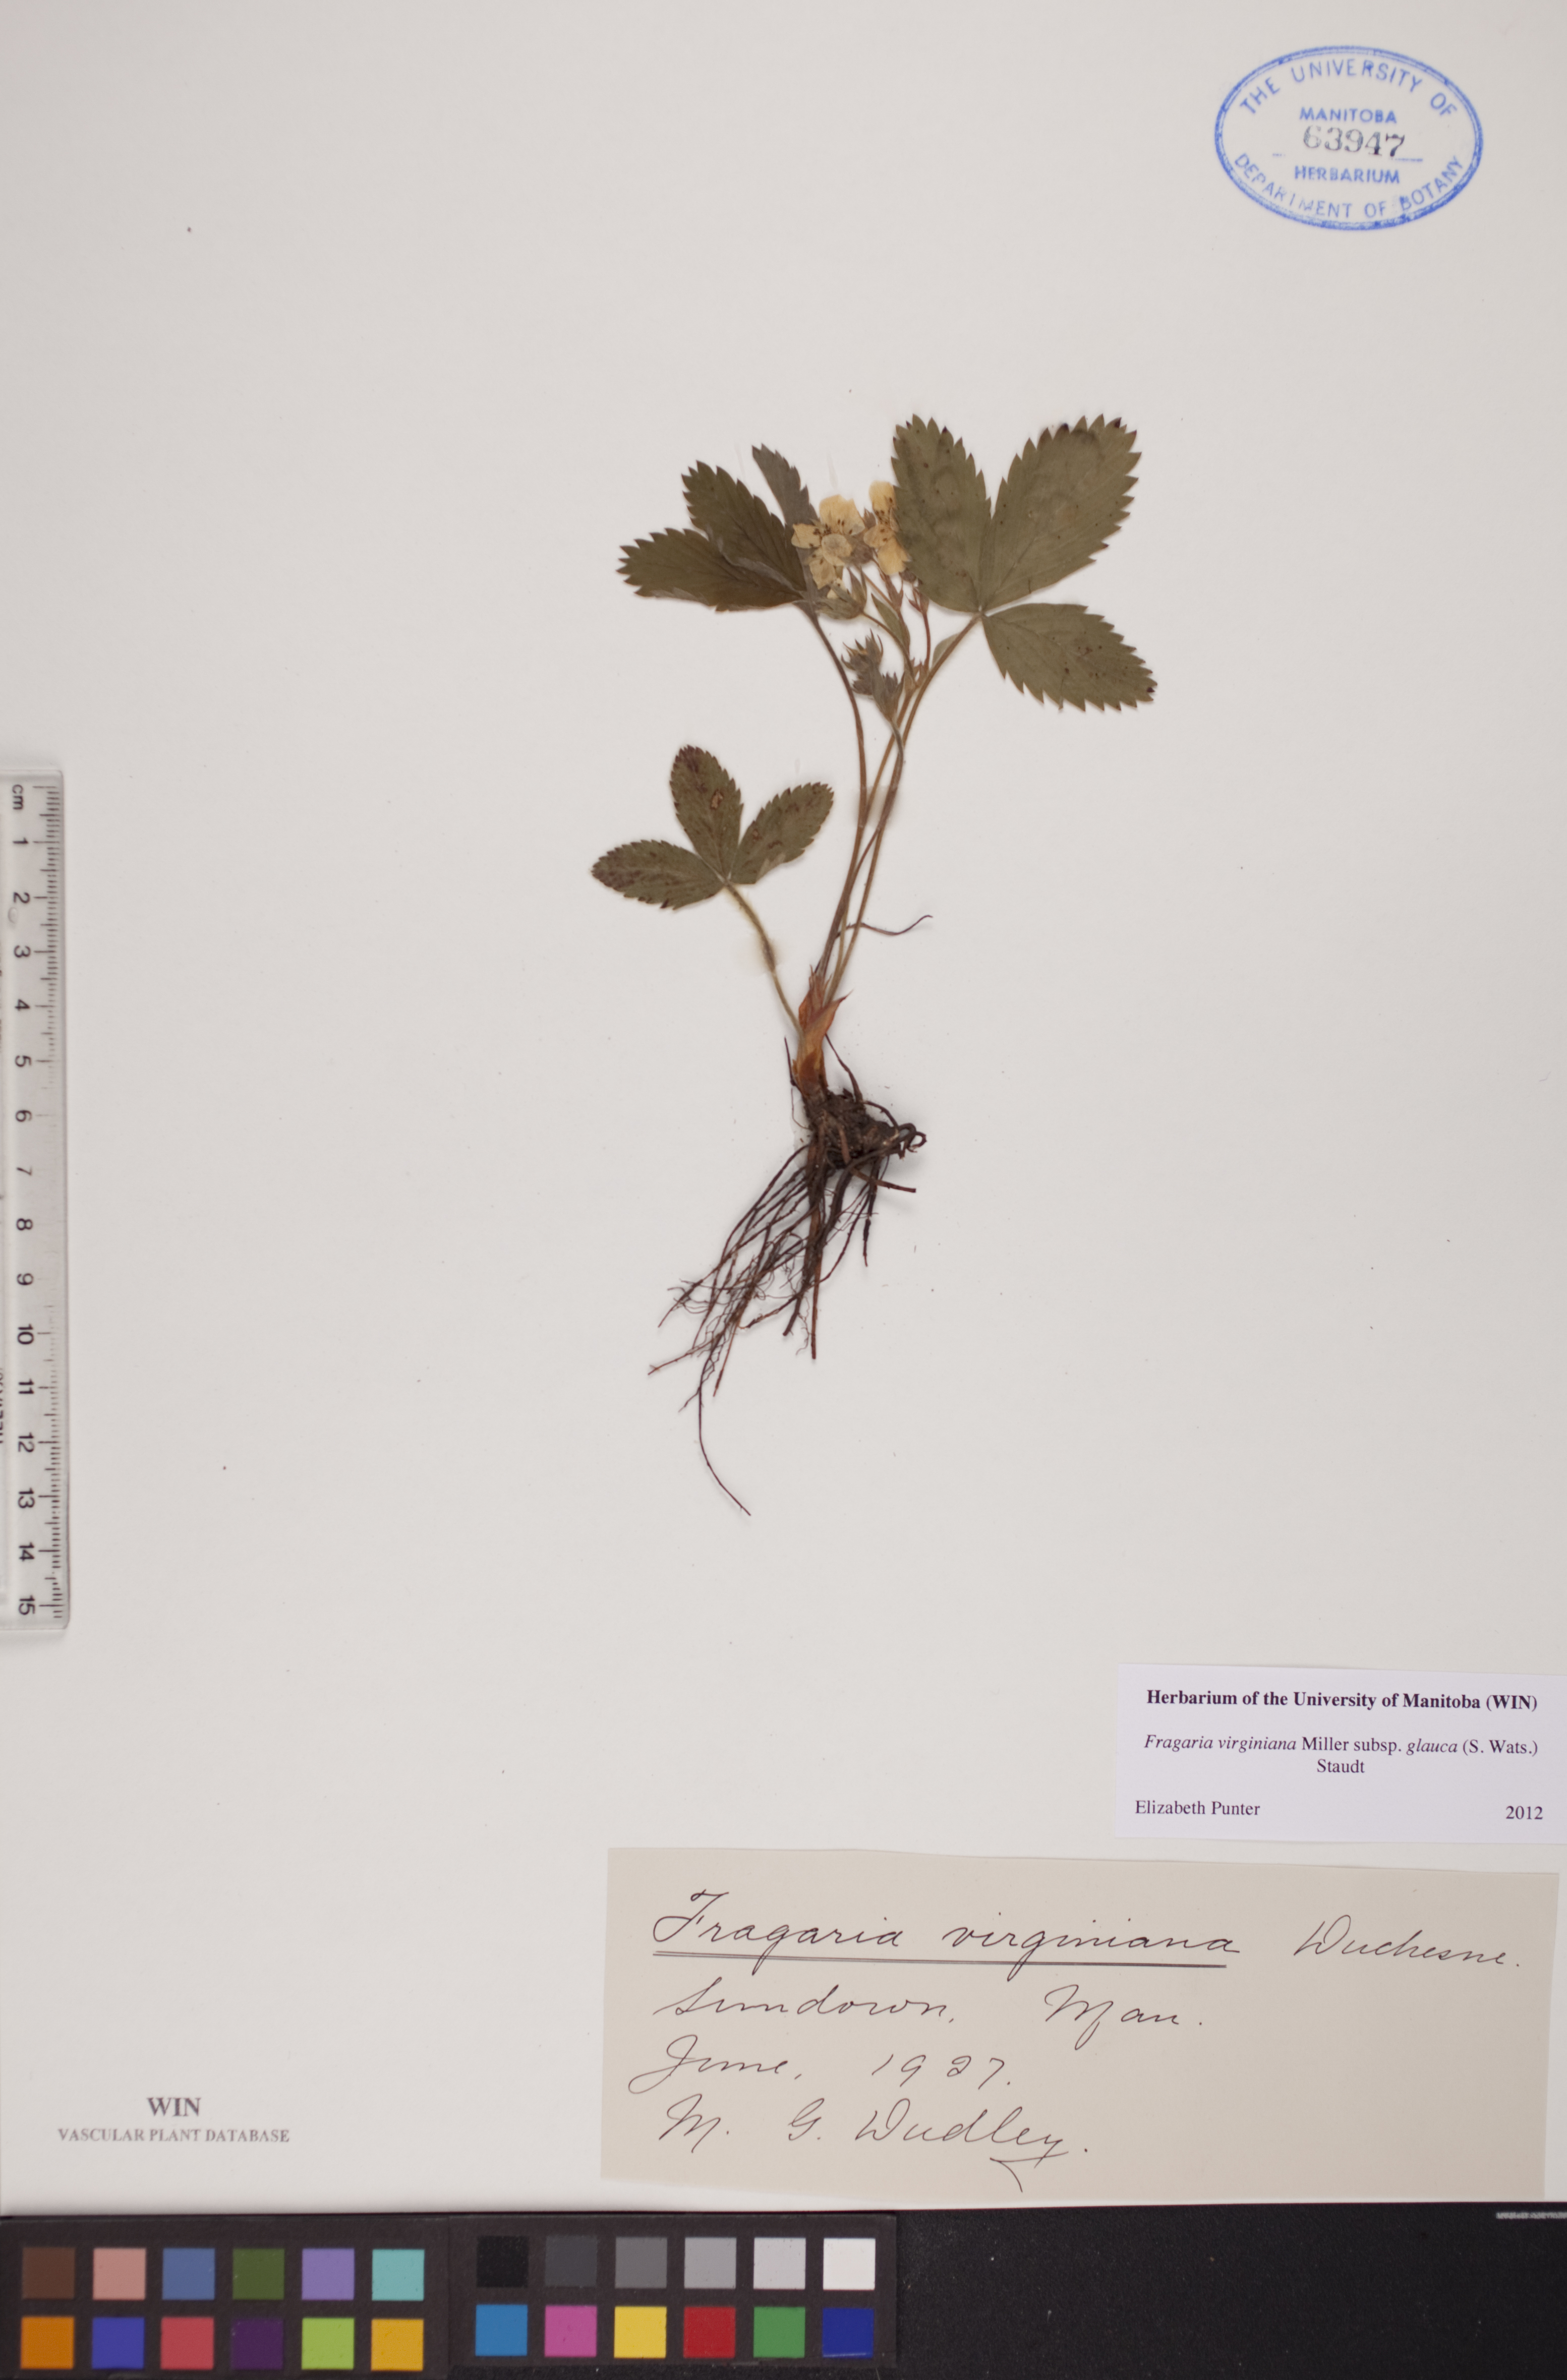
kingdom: Plantae
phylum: Tracheophyta
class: Magnoliopsida
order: Rosales
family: Rosaceae
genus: Fragaria
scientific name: Fragaria virginiana
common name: Thickleaved wild strawberry
